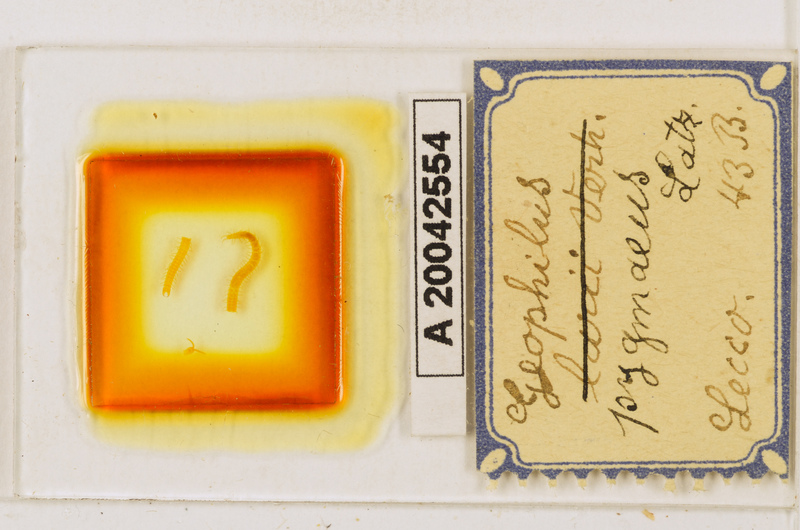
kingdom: Animalia
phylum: Arthropoda
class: Chilopoda
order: Geophilomorpha
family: Geophilidae
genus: Geophilus
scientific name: Geophilus pygmaeus
